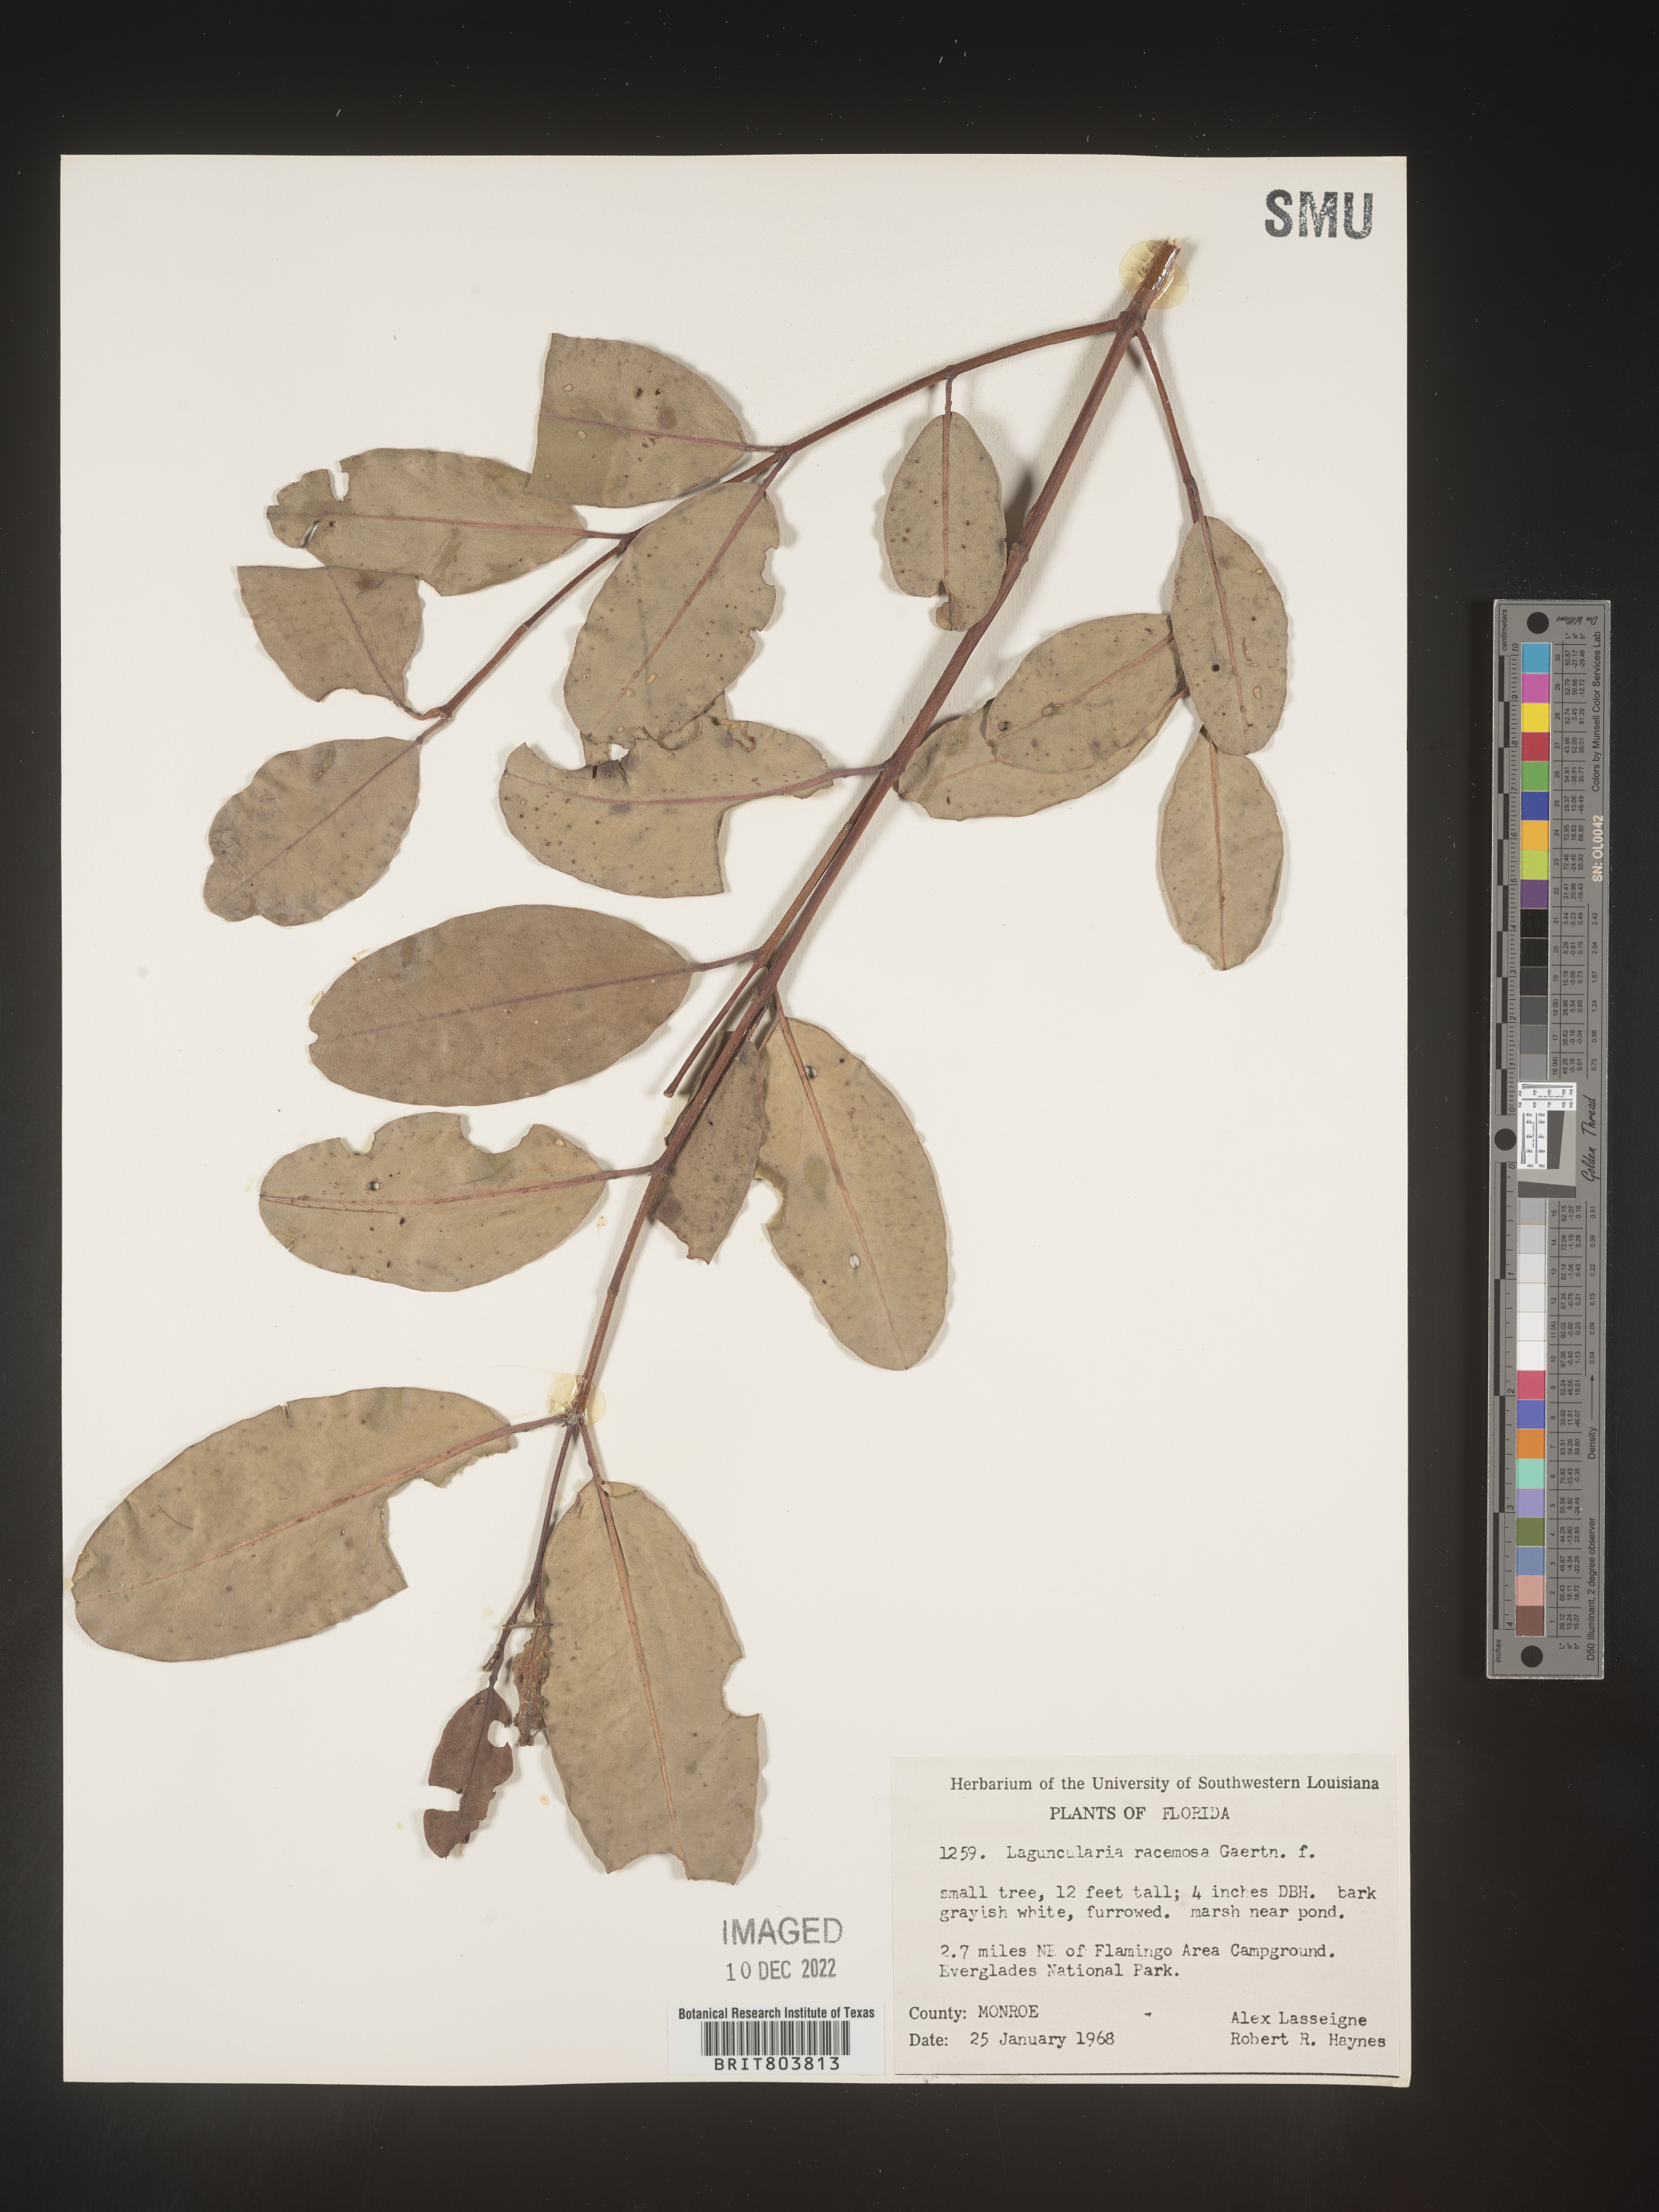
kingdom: Plantae
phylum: Tracheophyta
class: Magnoliopsida
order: Myrtales
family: Combretaceae
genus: Laguncularia
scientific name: Laguncularia
